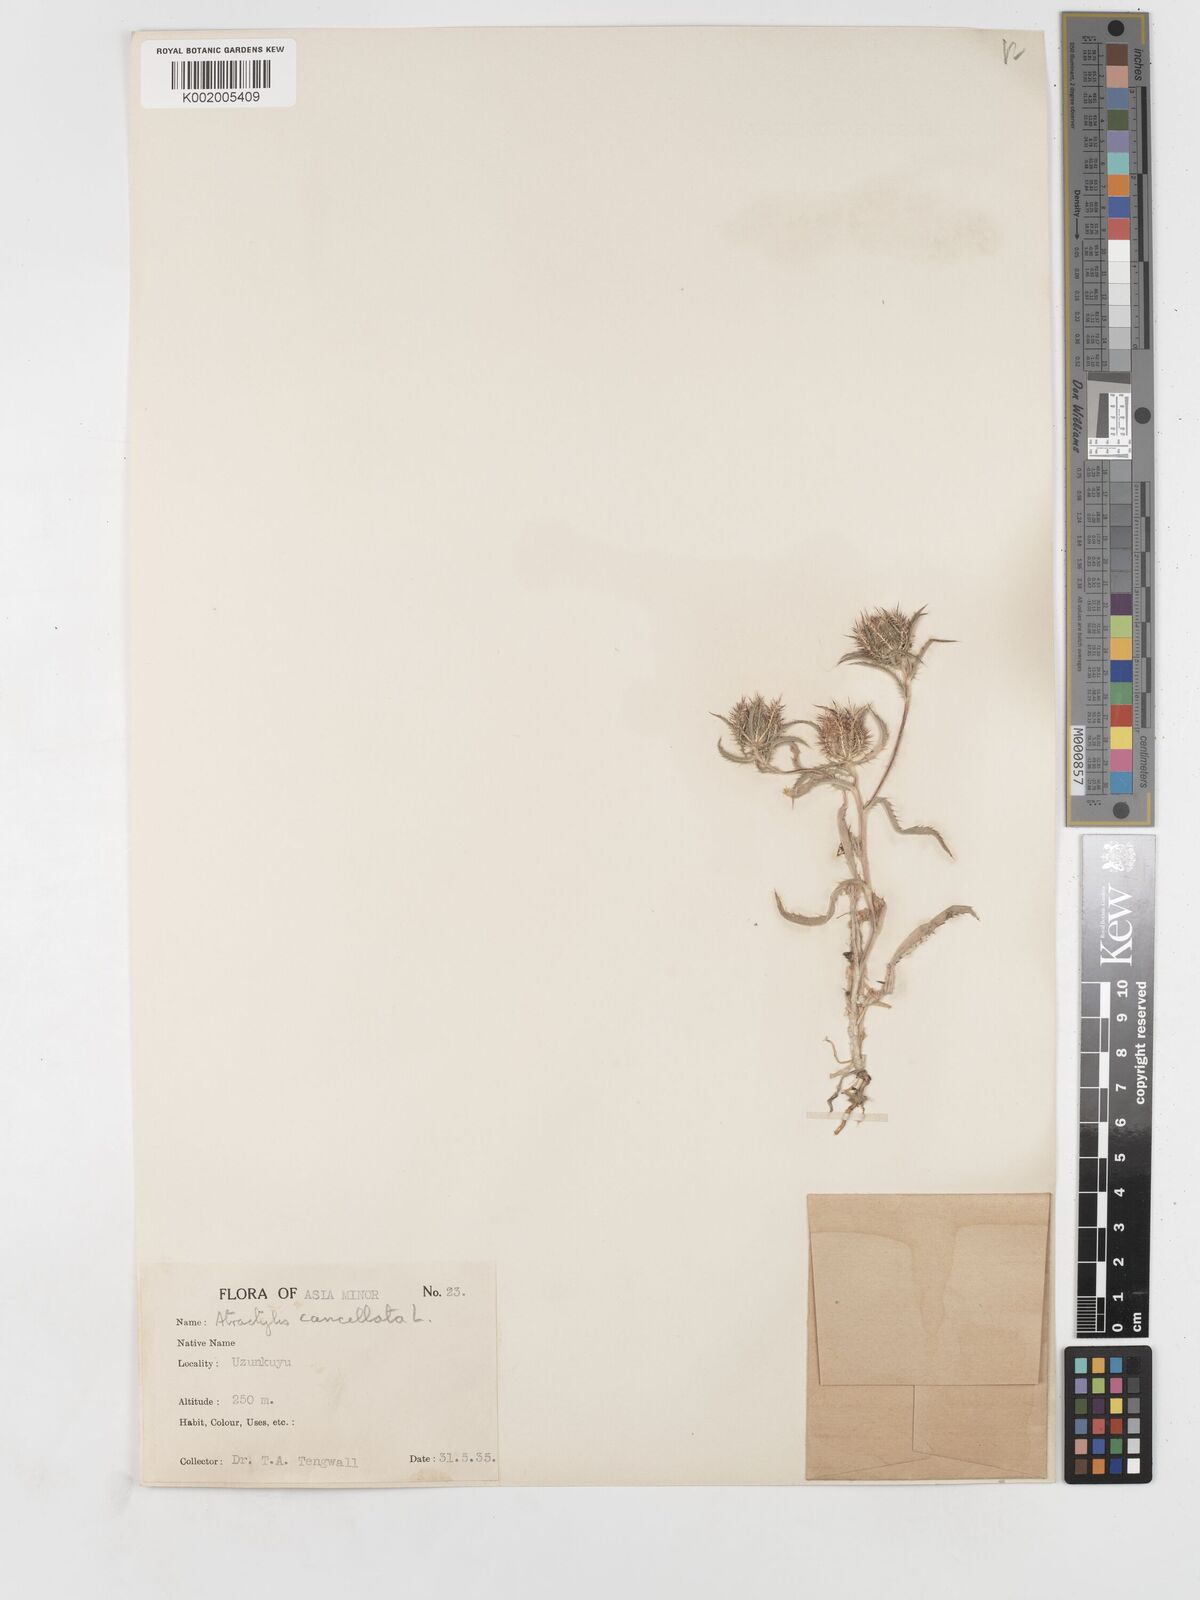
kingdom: Plantae
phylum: Tracheophyta
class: Magnoliopsida
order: Asterales
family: Asteraceae
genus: Atractylis
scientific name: Atractylis cancellata
